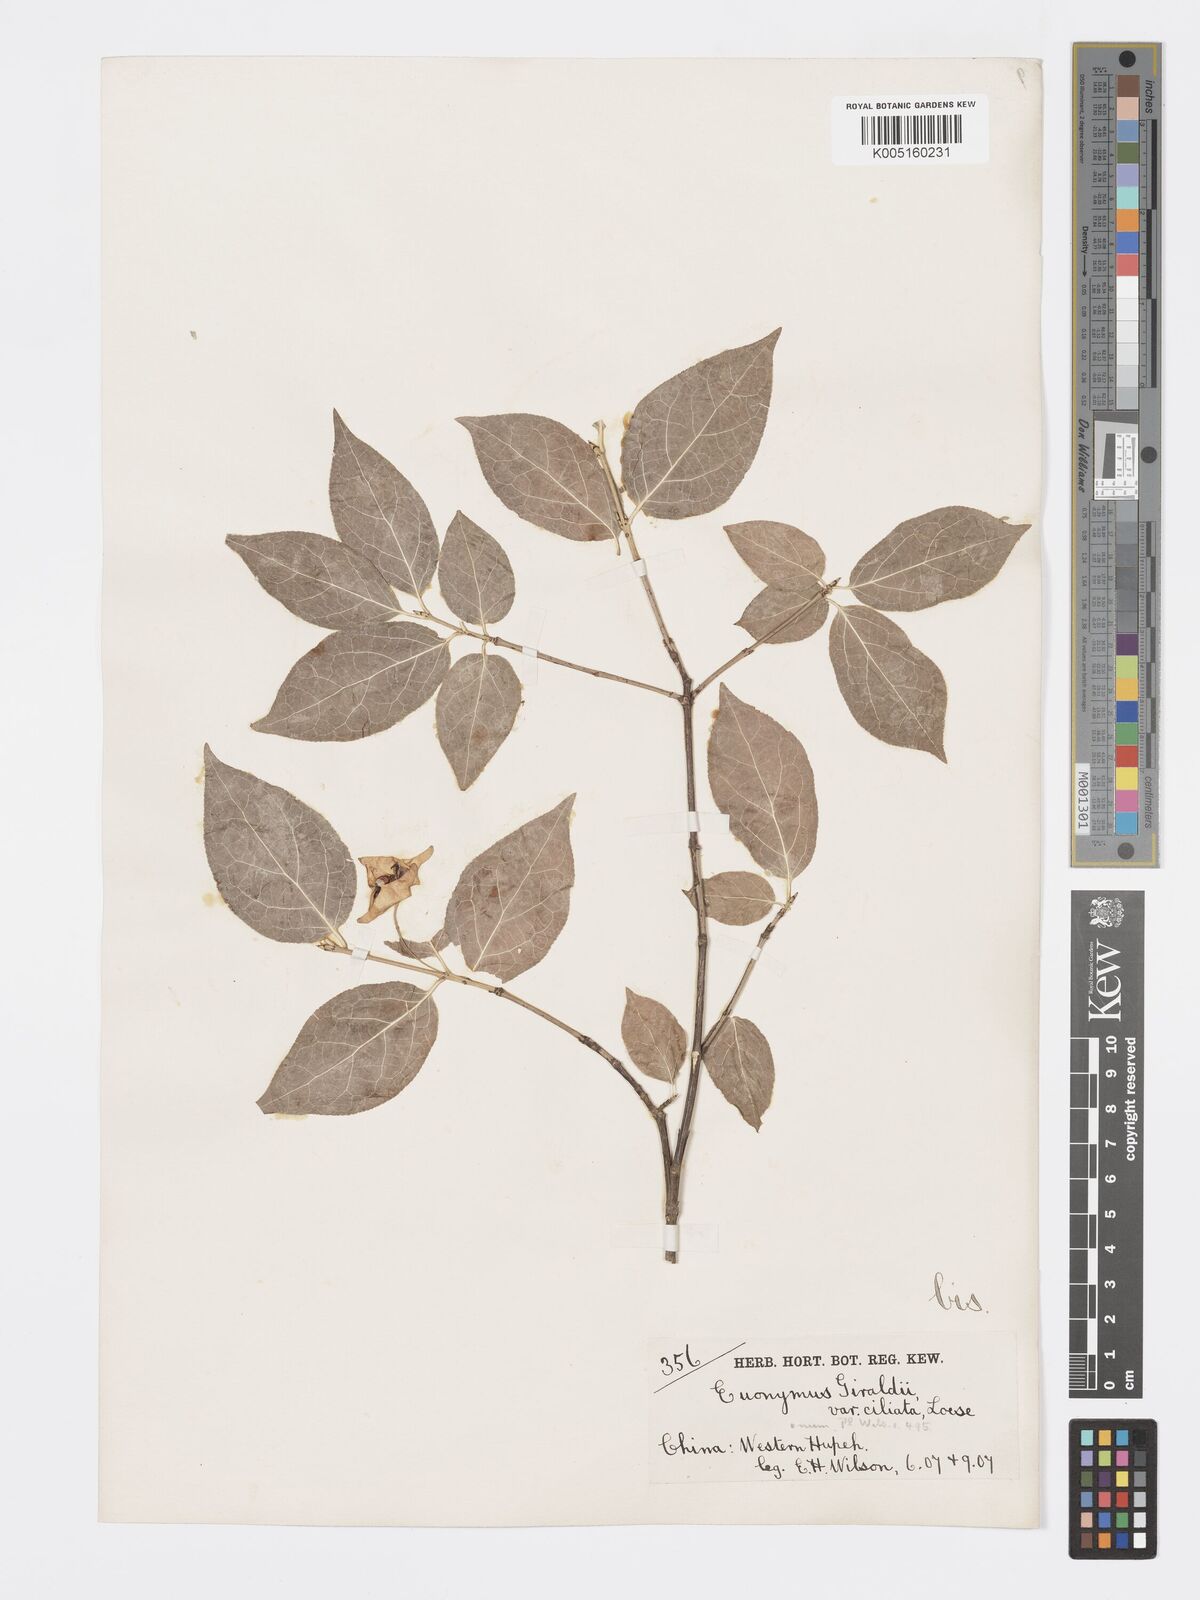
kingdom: Plantae
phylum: Tracheophyta
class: Magnoliopsida
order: Celastrales
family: Celastraceae
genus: Euonymus
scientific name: Euonymus giraldii
